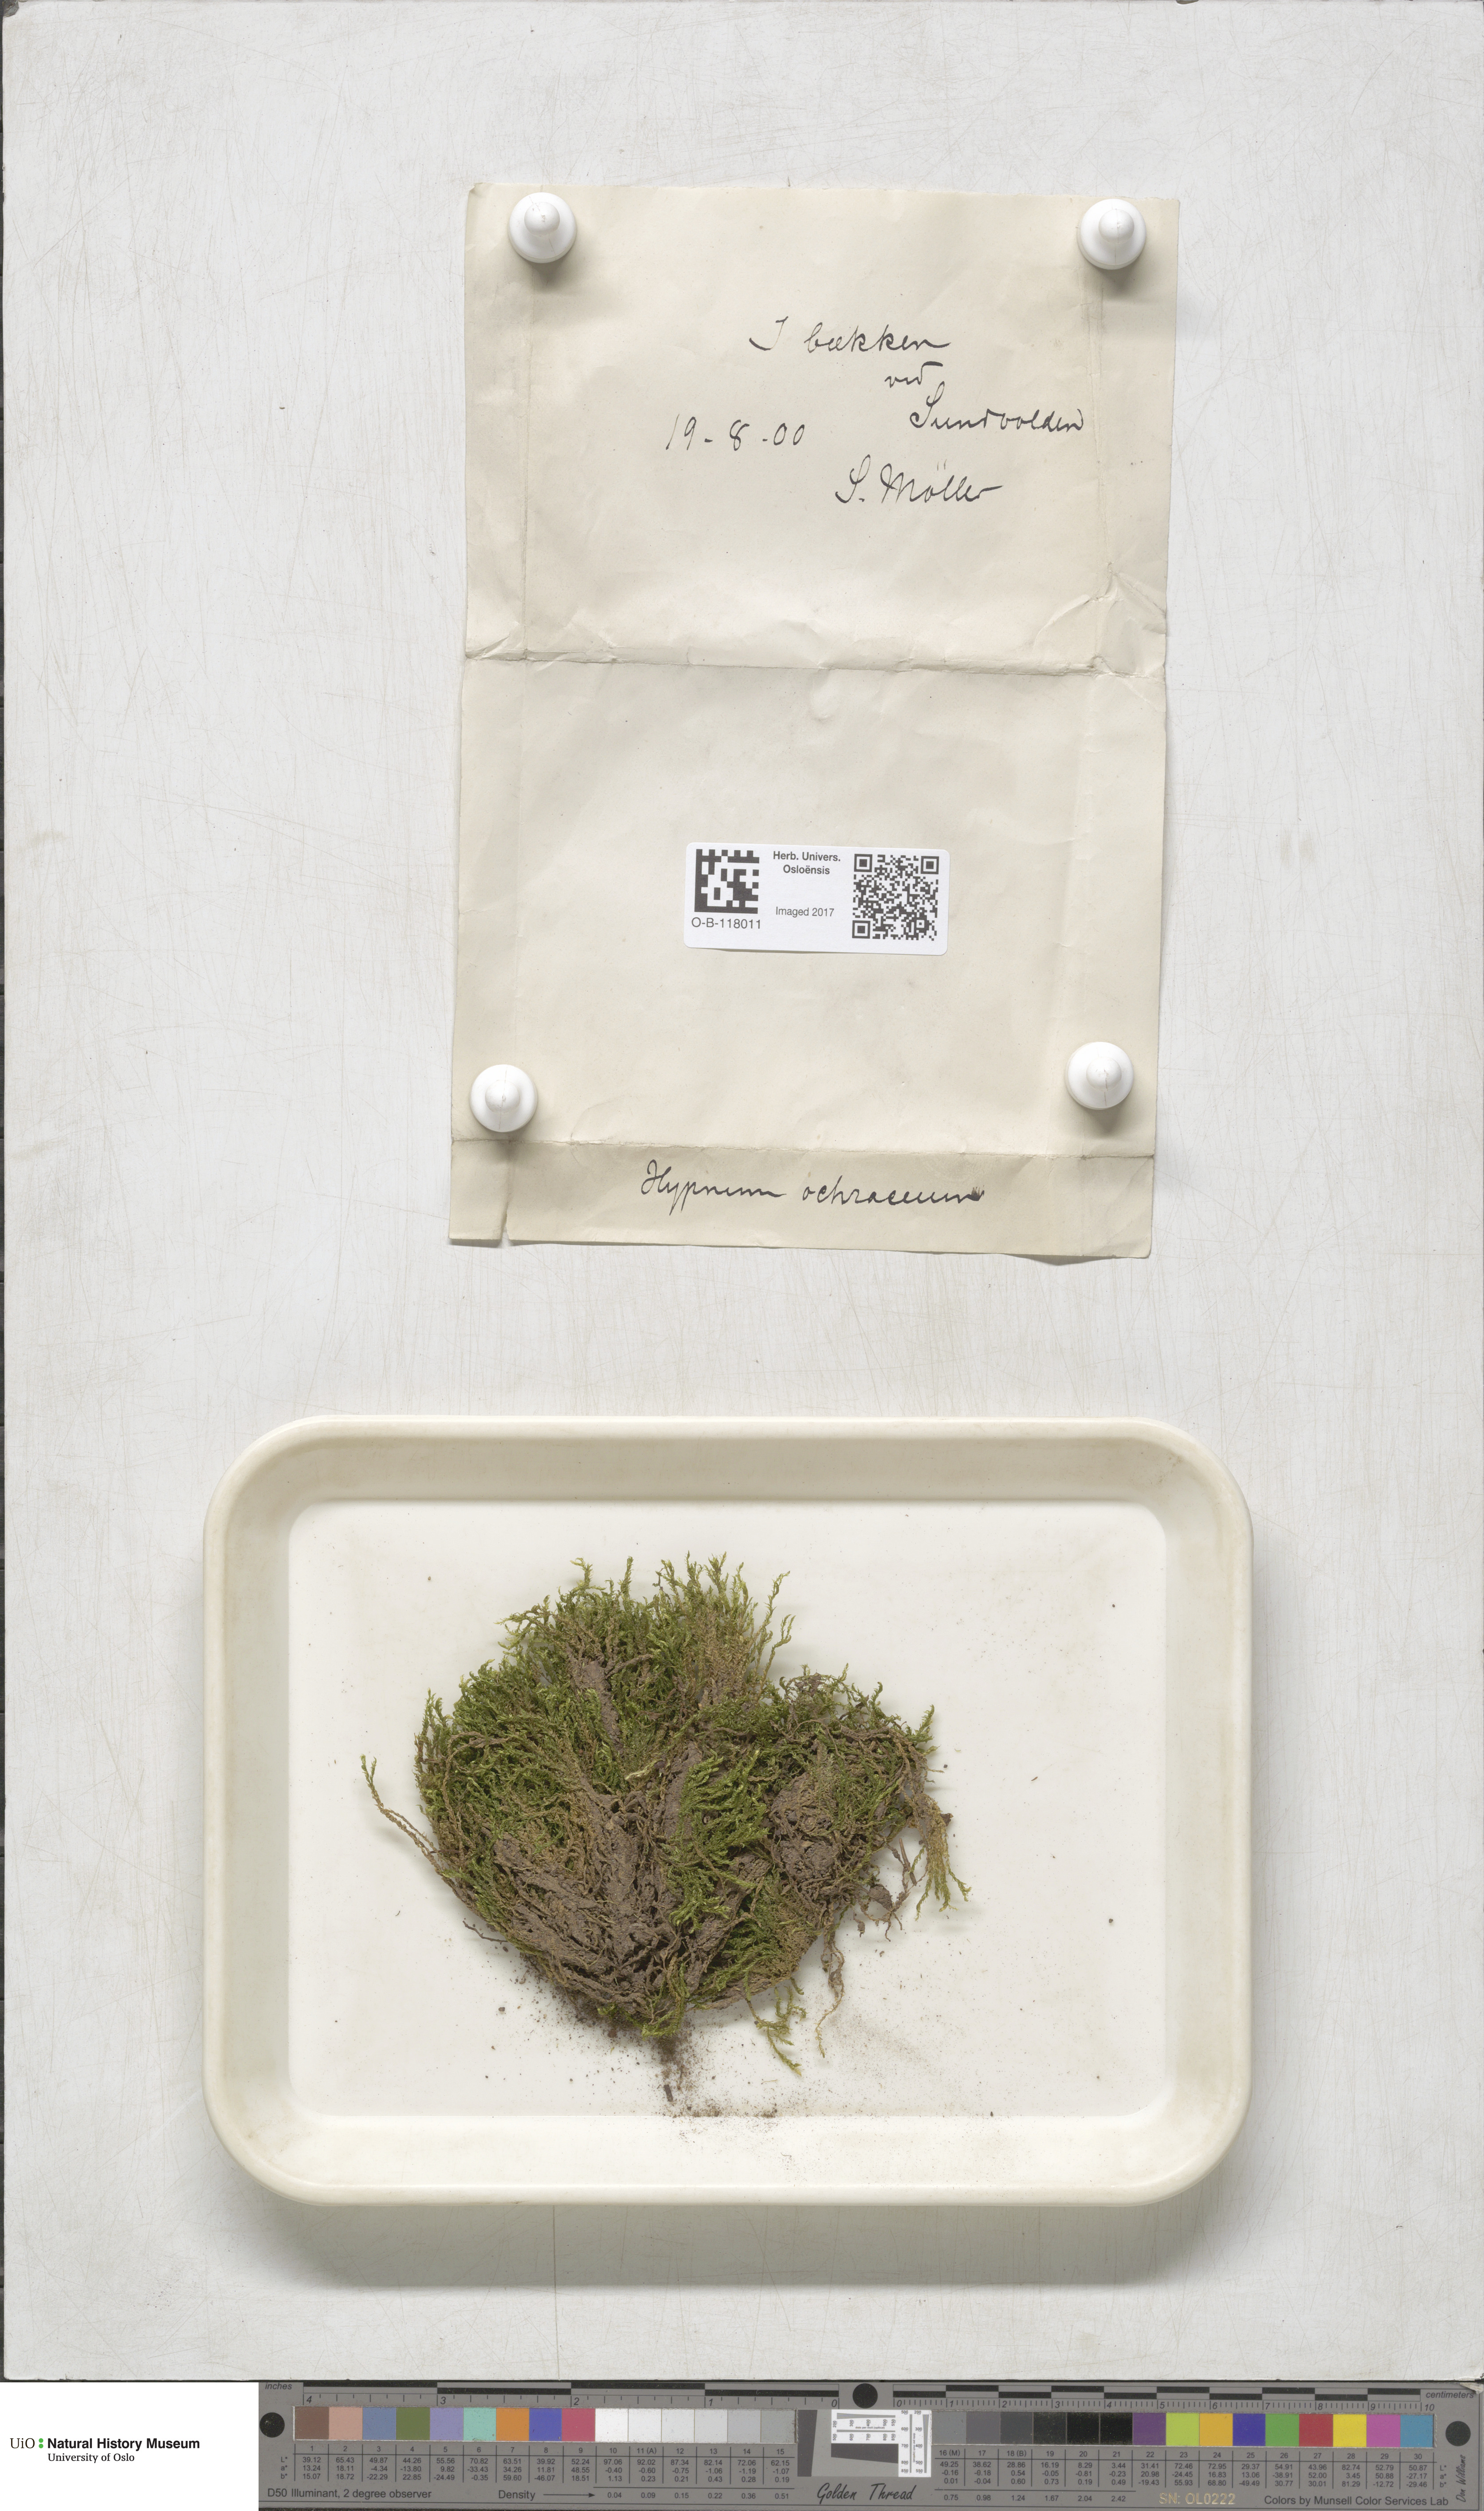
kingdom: Plantae
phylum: Bryophyta
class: Bryopsida
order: Hypnales
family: Scorpidiaceae
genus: Hygrohypnella
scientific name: Hygrohypnella ochracea
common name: Hygrohypnum moss
